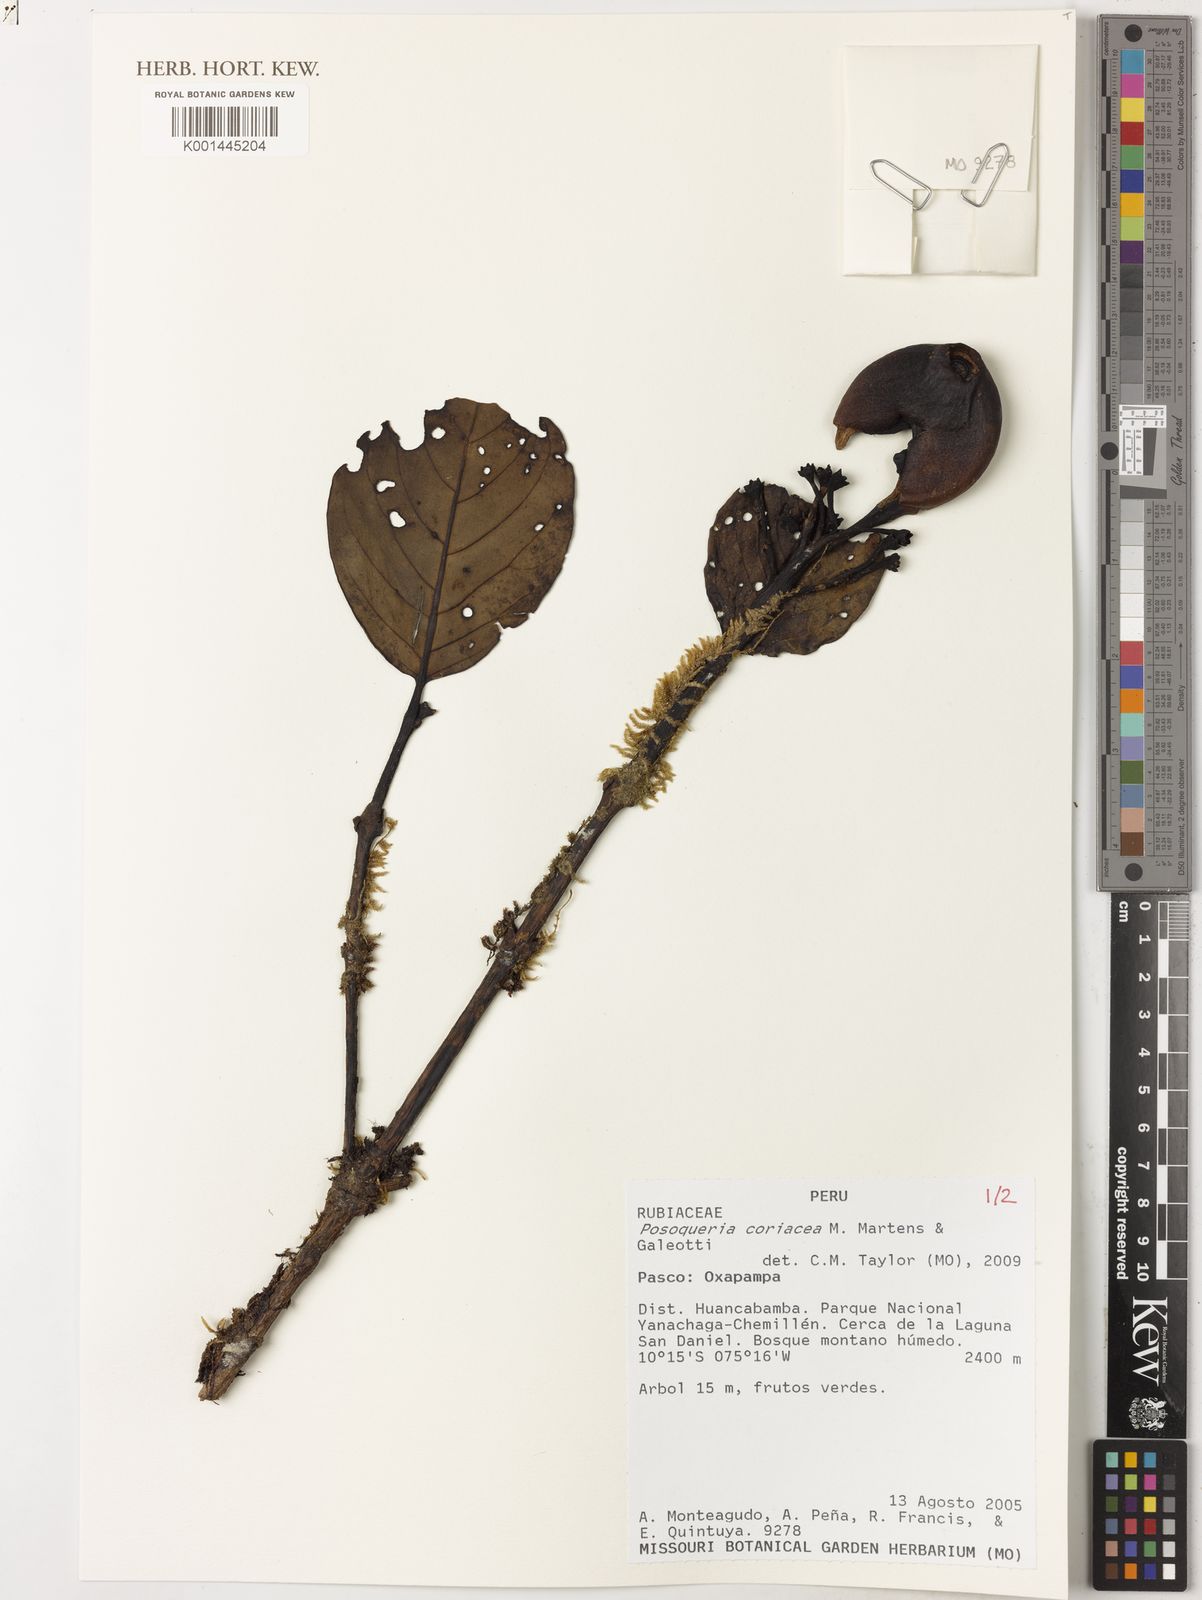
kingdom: Plantae
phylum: Tracheophyta
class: Magnoliopsida
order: Gentianales
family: Rubiaceae
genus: Posoqueria
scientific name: Posoqueria coriacea
